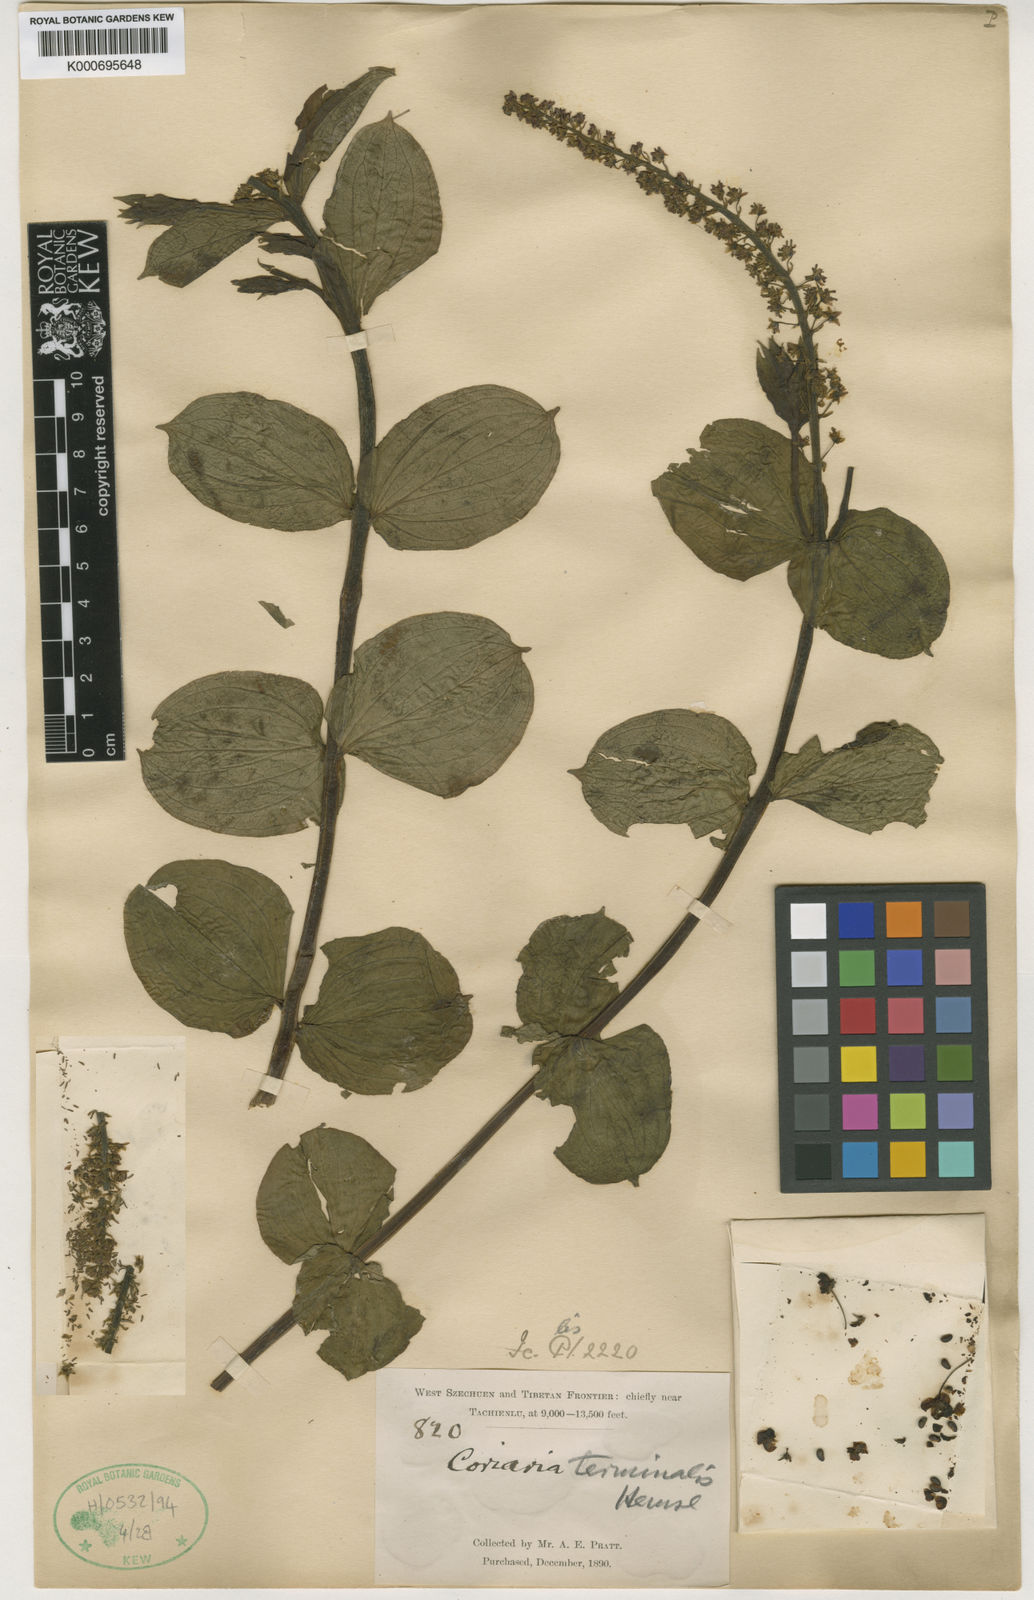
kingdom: Plantae
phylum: Tracheophyta
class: Magnoliopsida
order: Cucurbitales
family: Coriariaceae
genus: Coriaria
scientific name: Coriaria terminalis
